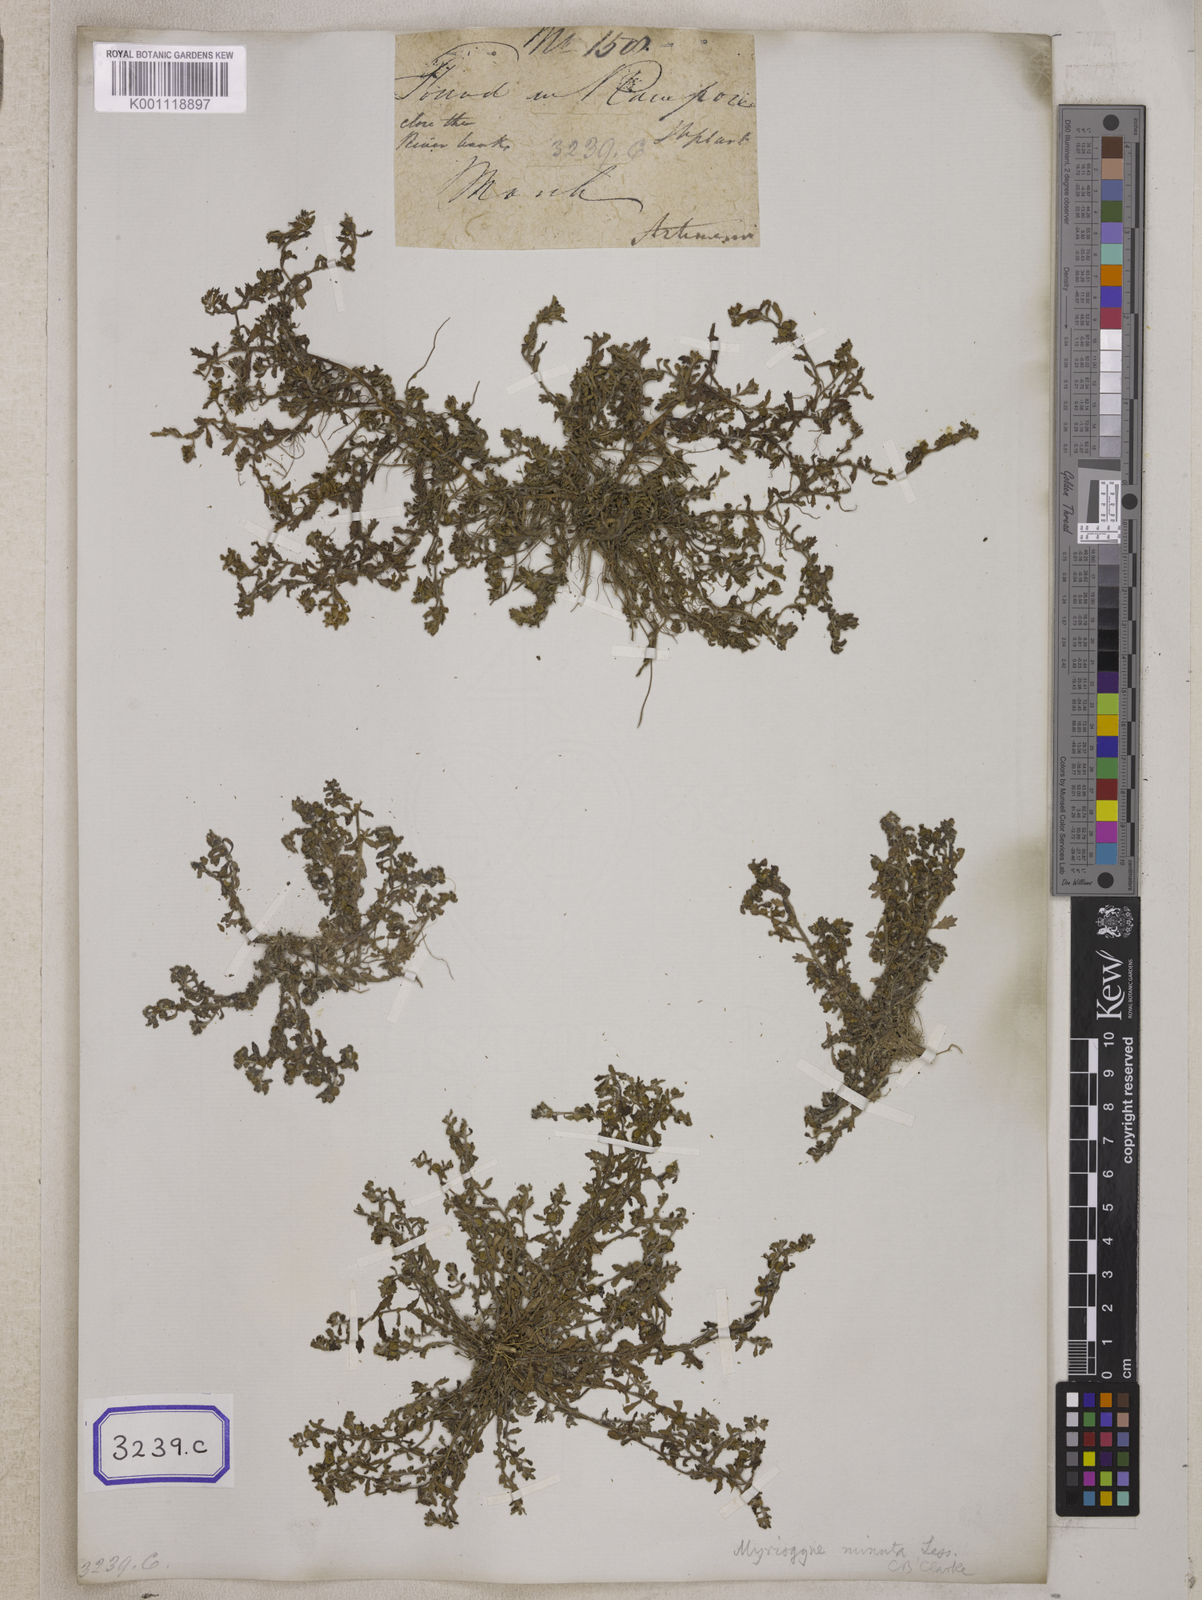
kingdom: Plantae
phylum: Tracheophyta
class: Magnoliopsida
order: Asterales
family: Asteraceae
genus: Cotula
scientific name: Cotula
